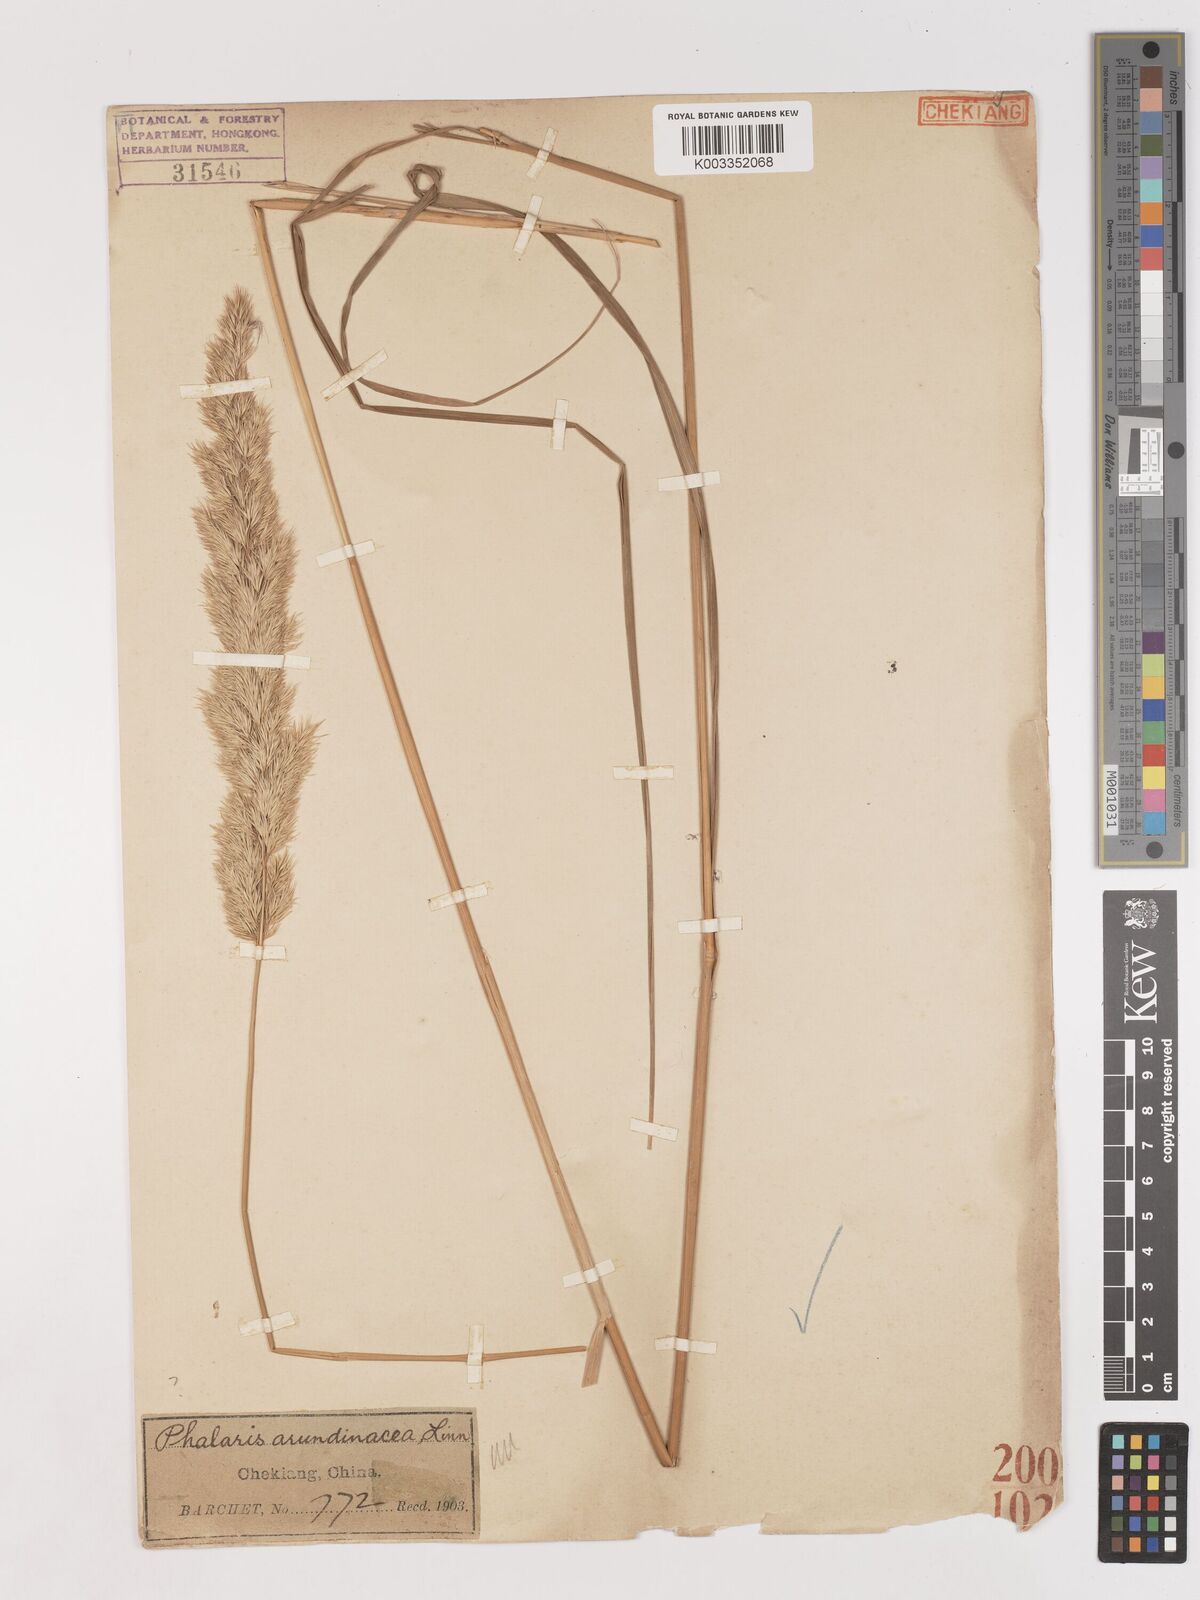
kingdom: Plantae
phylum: Tracheophyta
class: Liliopsida
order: Poales
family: Poaceae
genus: Calamagrostis
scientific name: Calamagrostis epigejos
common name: Wood small-reed
